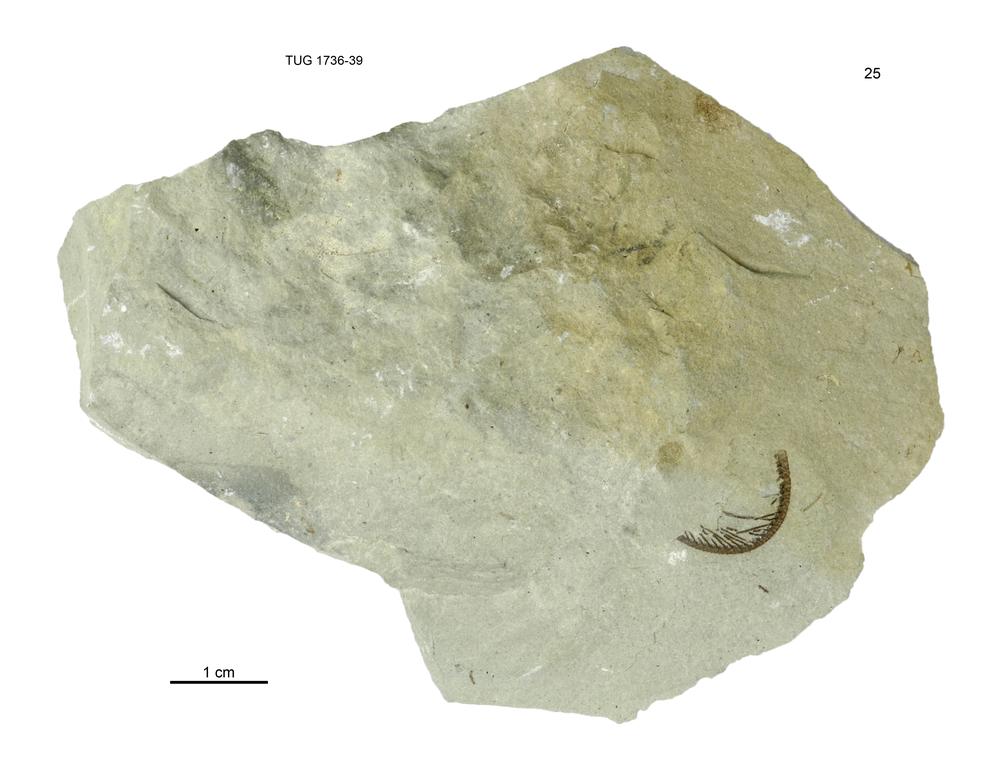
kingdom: Animalia
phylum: Echinodermata
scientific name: Echinodermata
